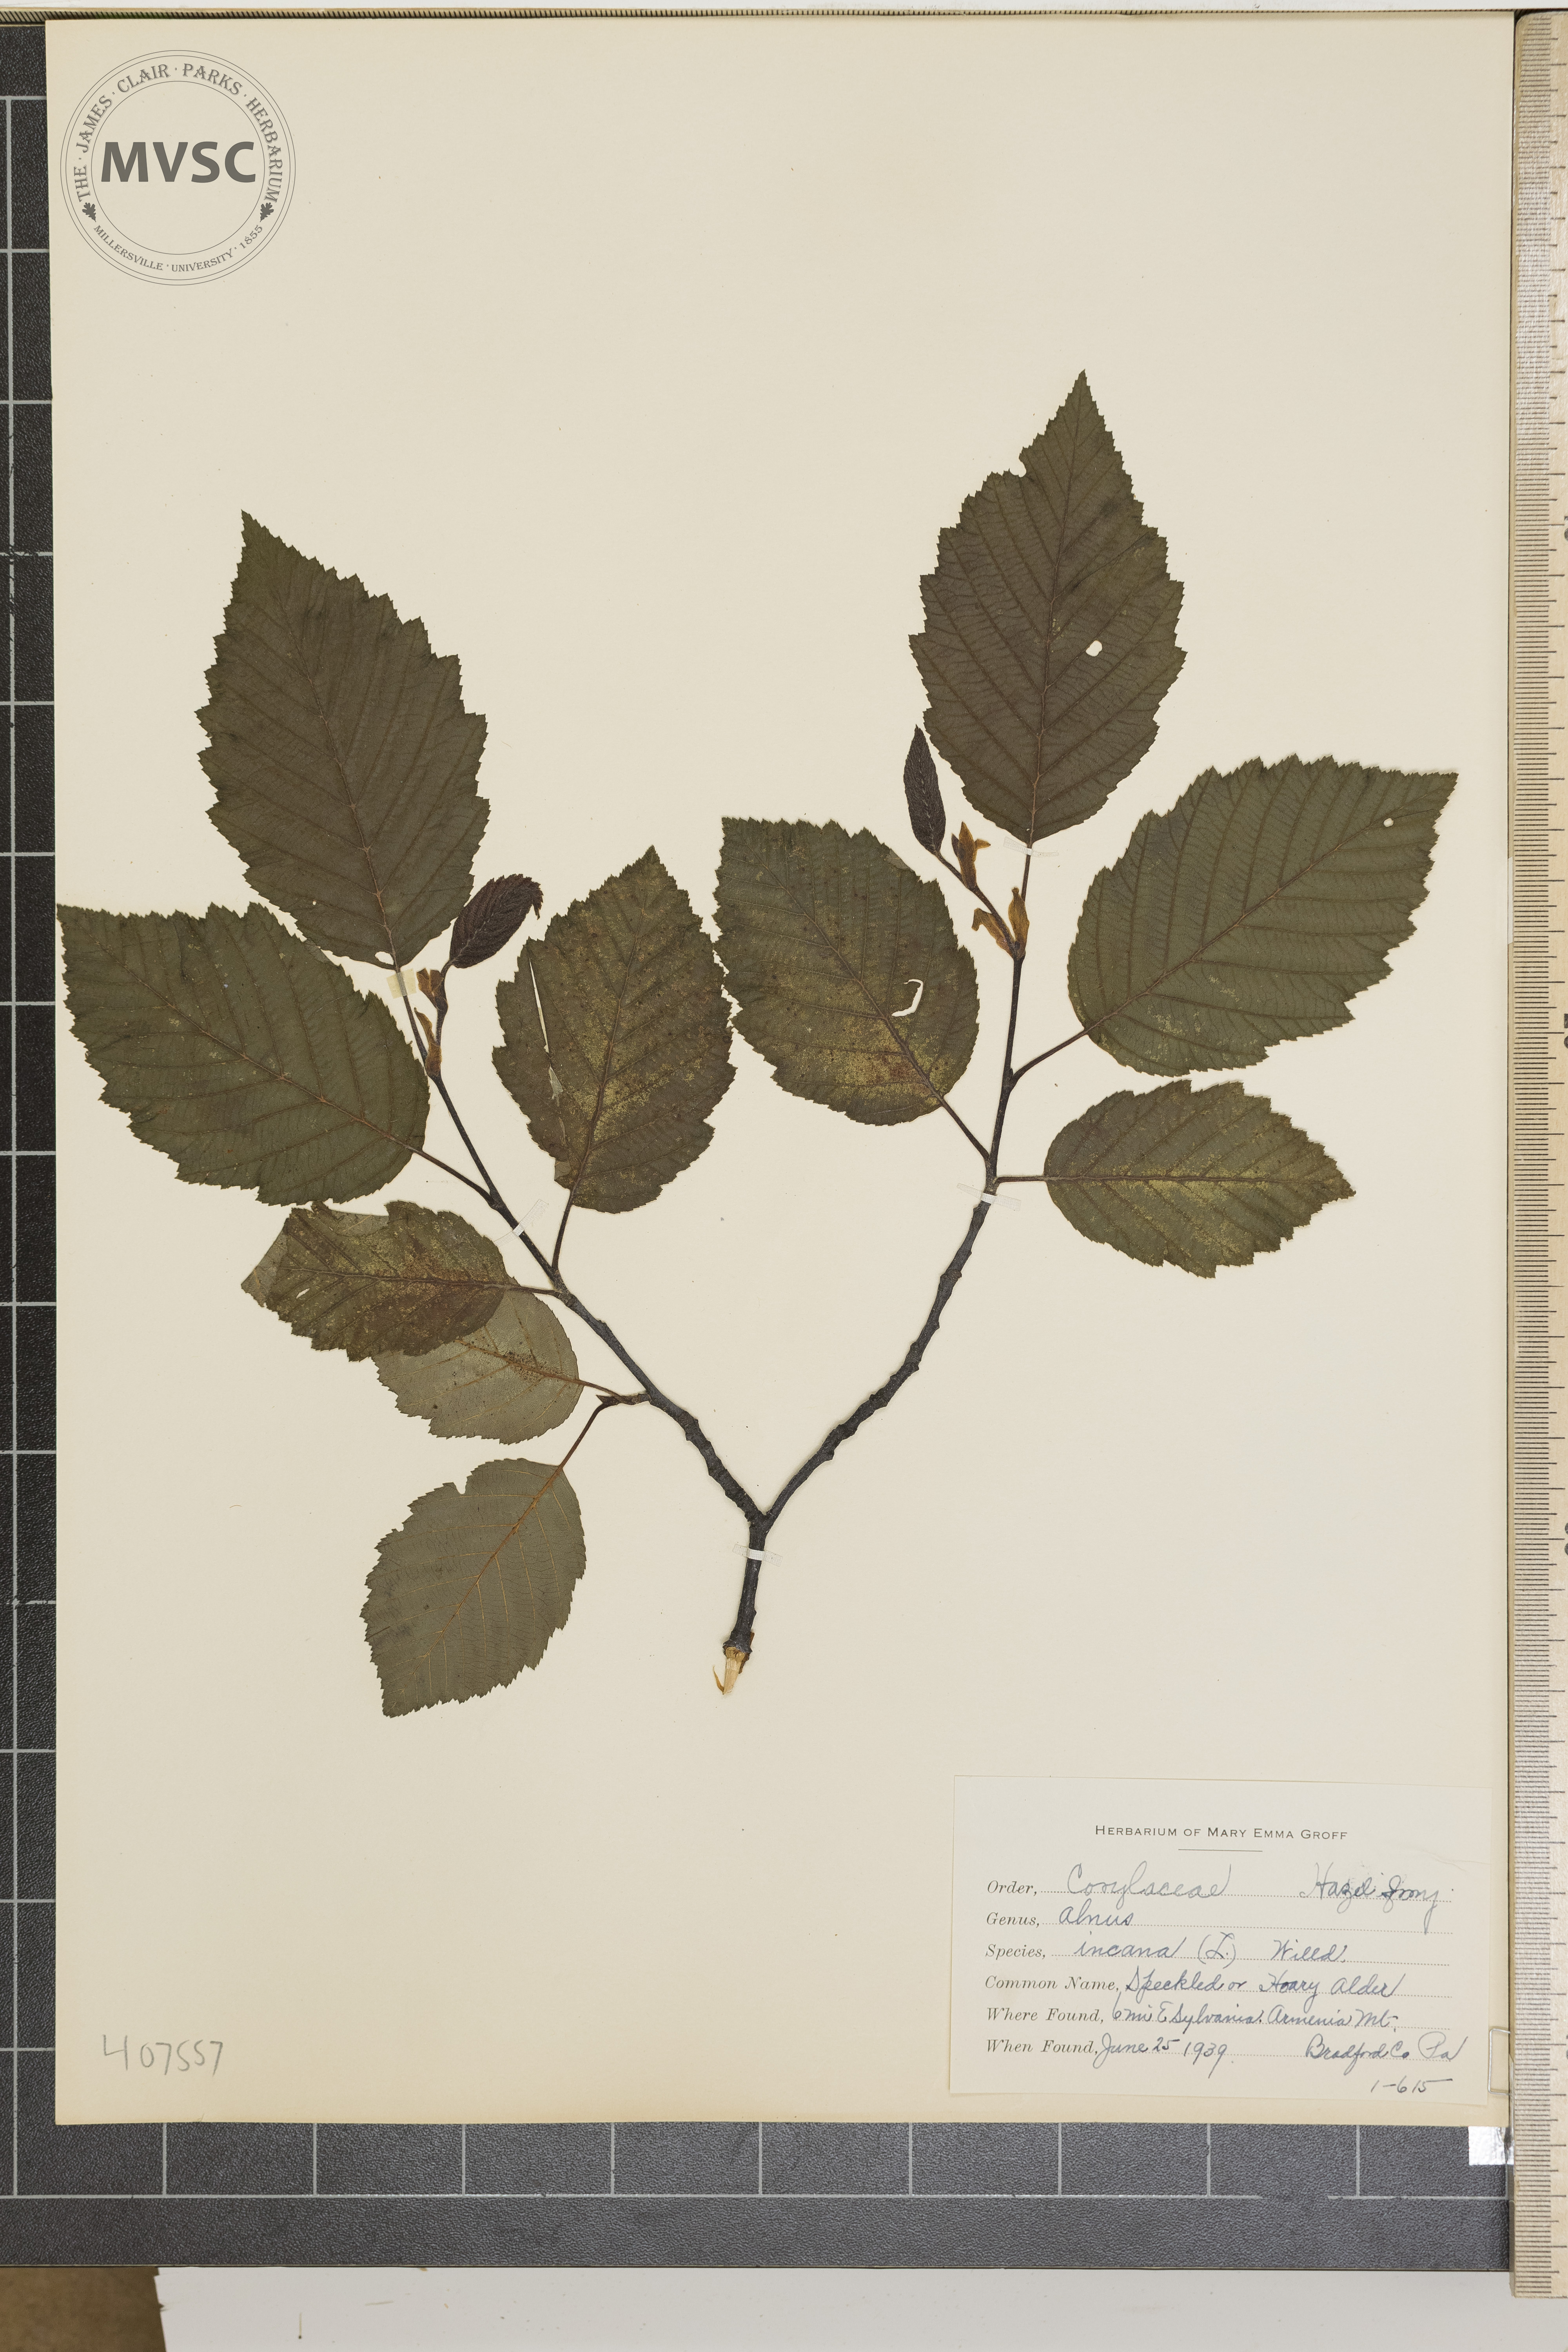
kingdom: Plantae
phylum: Tracheophyta
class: Magnoliopsida
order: Fagales
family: Betulaceae
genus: Alnus
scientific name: Alnus incana
